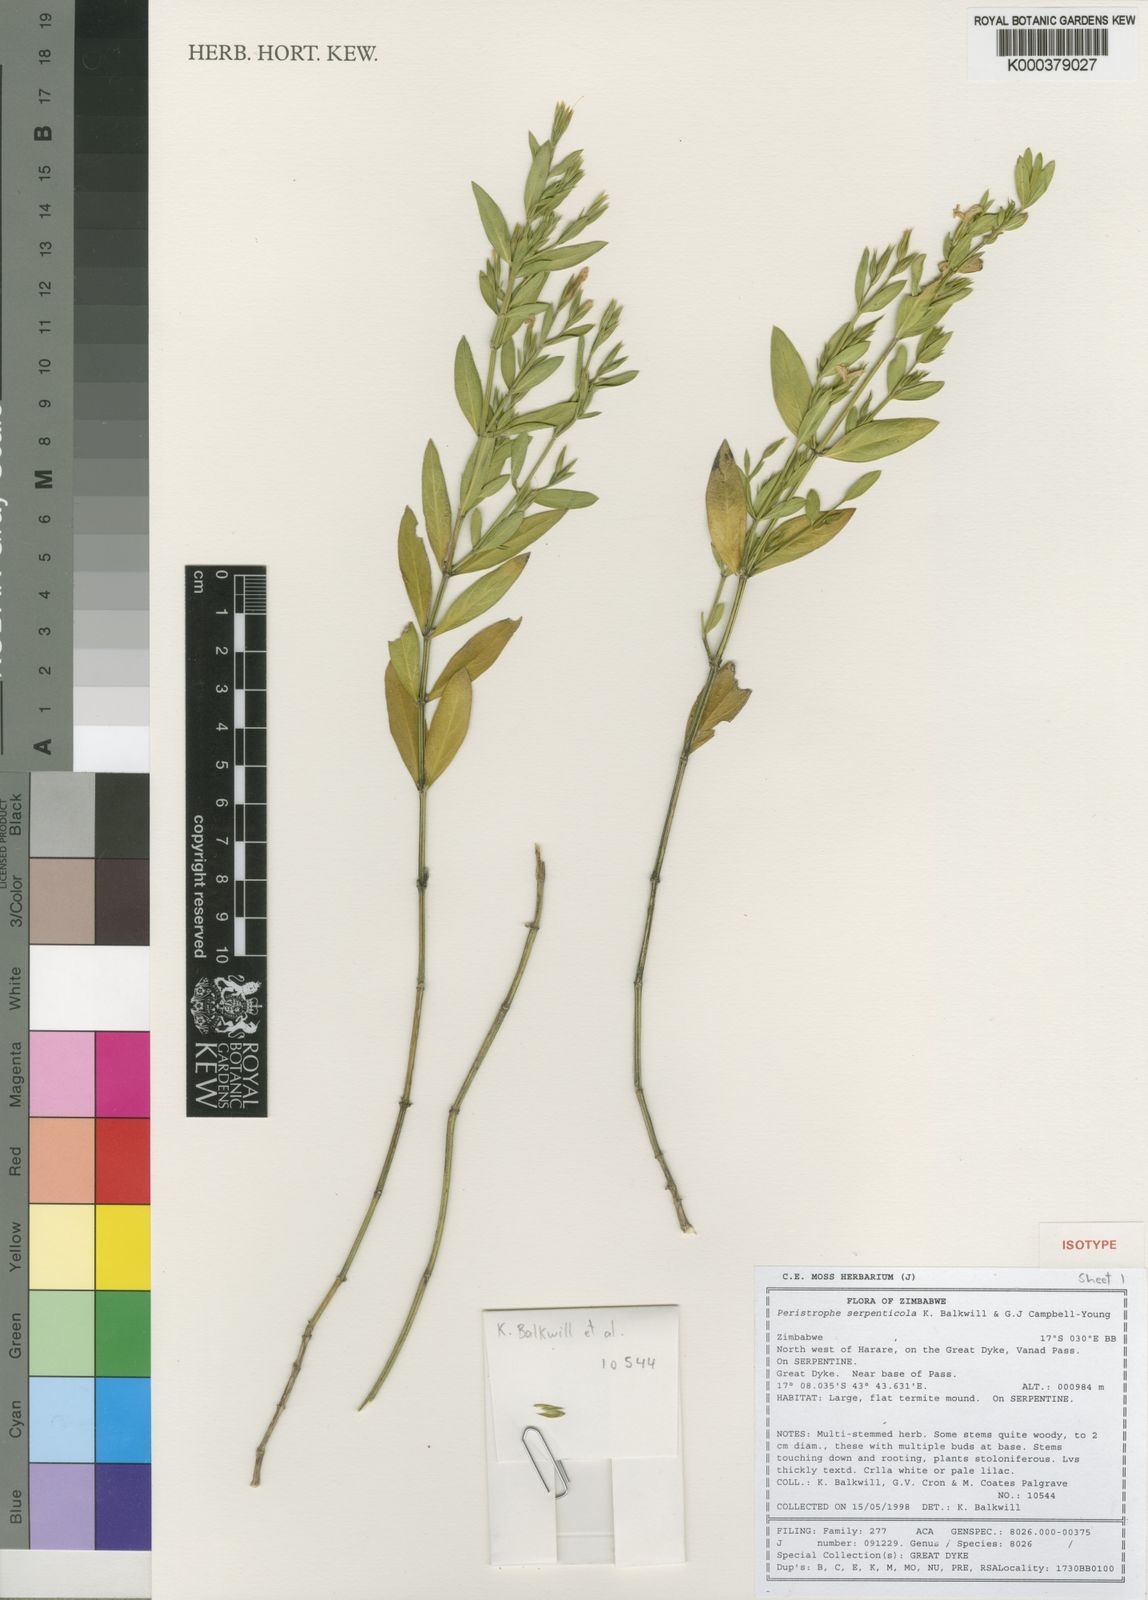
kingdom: Plantae
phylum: Tracheophyta
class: Magnoliopsida
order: Lamiales
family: Acanthaceae
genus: Dicliptera
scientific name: Dicliptera serpenticola
